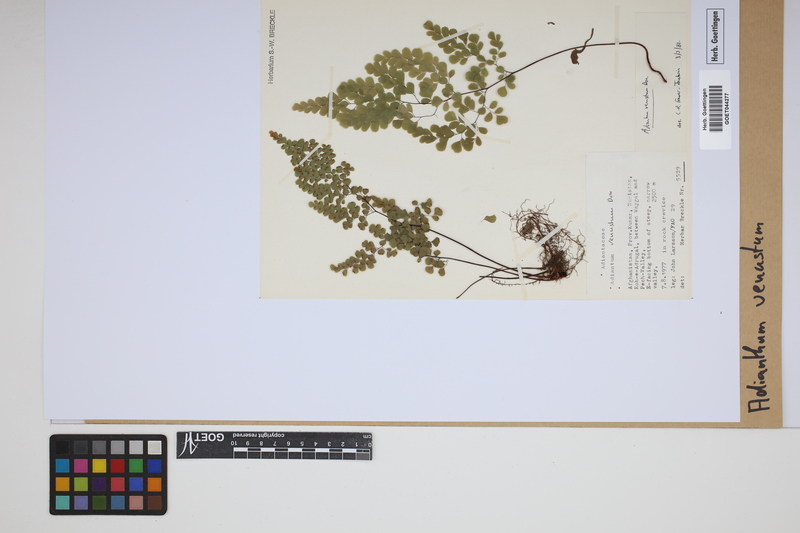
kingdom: Plantae
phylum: Tracheophyta
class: Polypodiopsida
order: Polypodiales
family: Pteridaceae
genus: Adiantum
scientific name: Adiantum venustum
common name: Evergreen maidenhair
